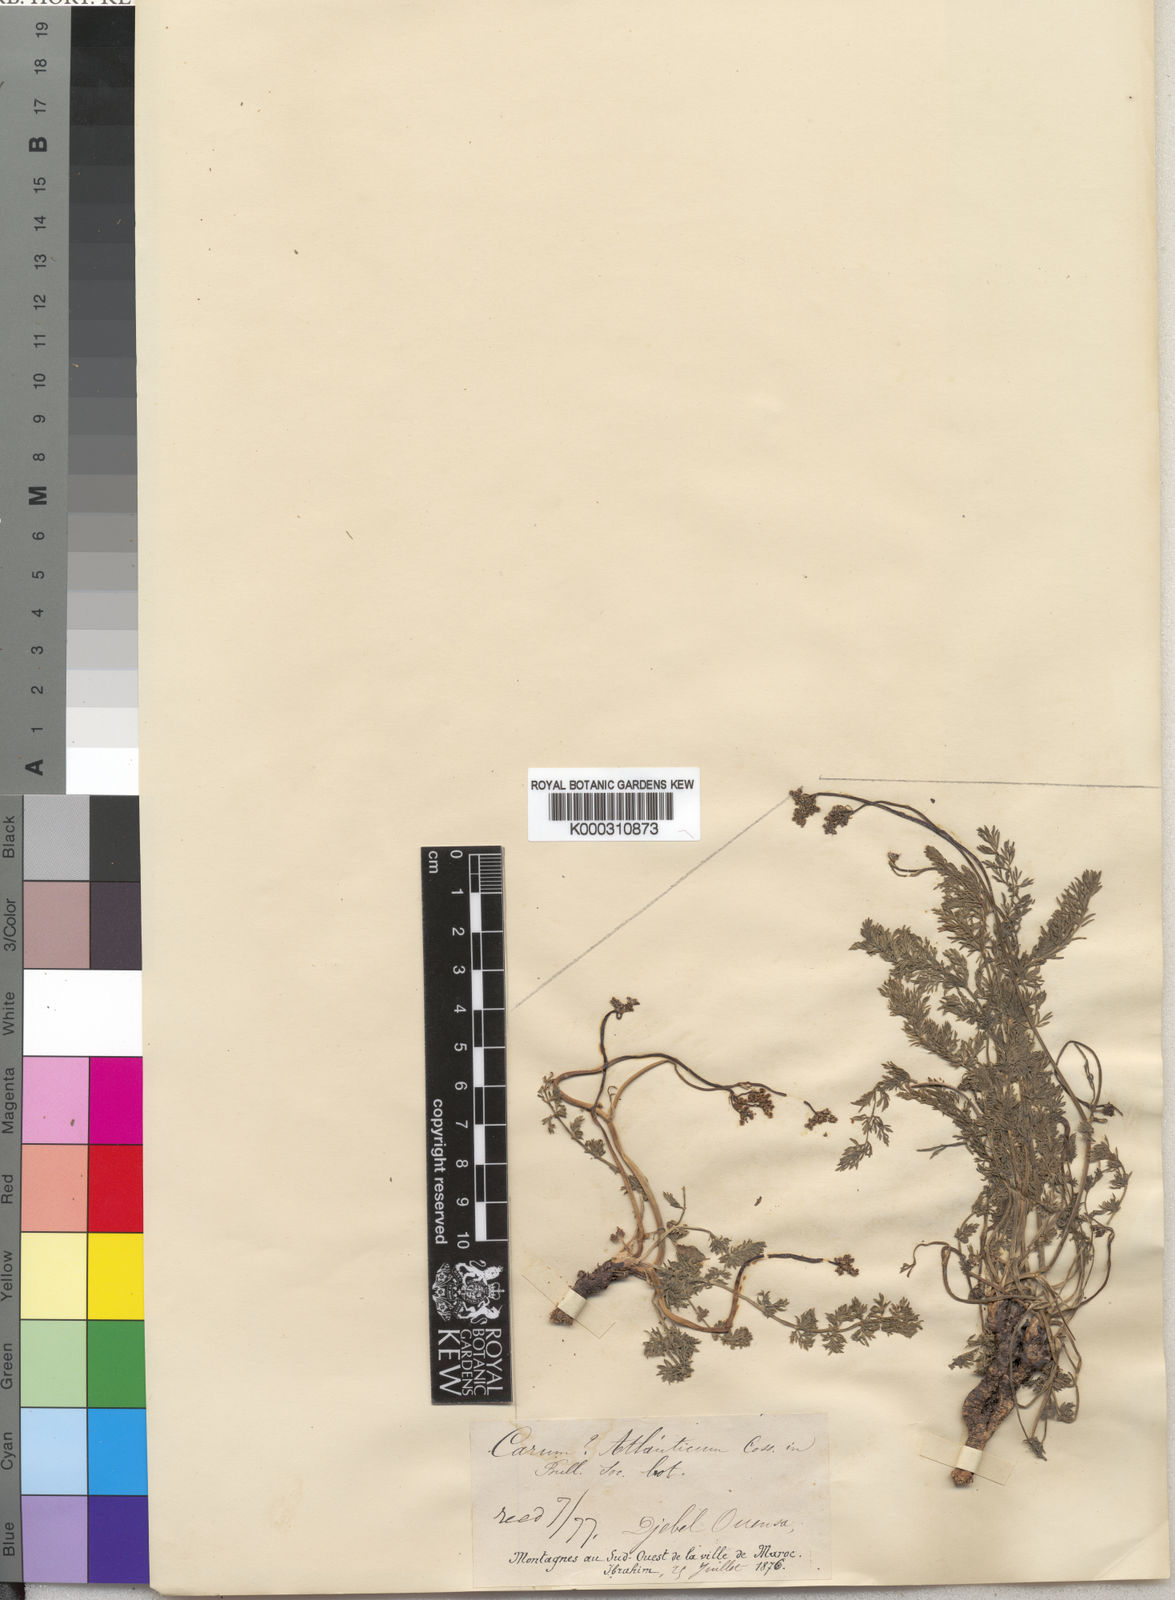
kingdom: Plantae
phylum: Tracheophyta
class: Magnoliopsida
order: Apiales
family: Apiaceae
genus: Ammoides
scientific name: Ammoides atlantica
